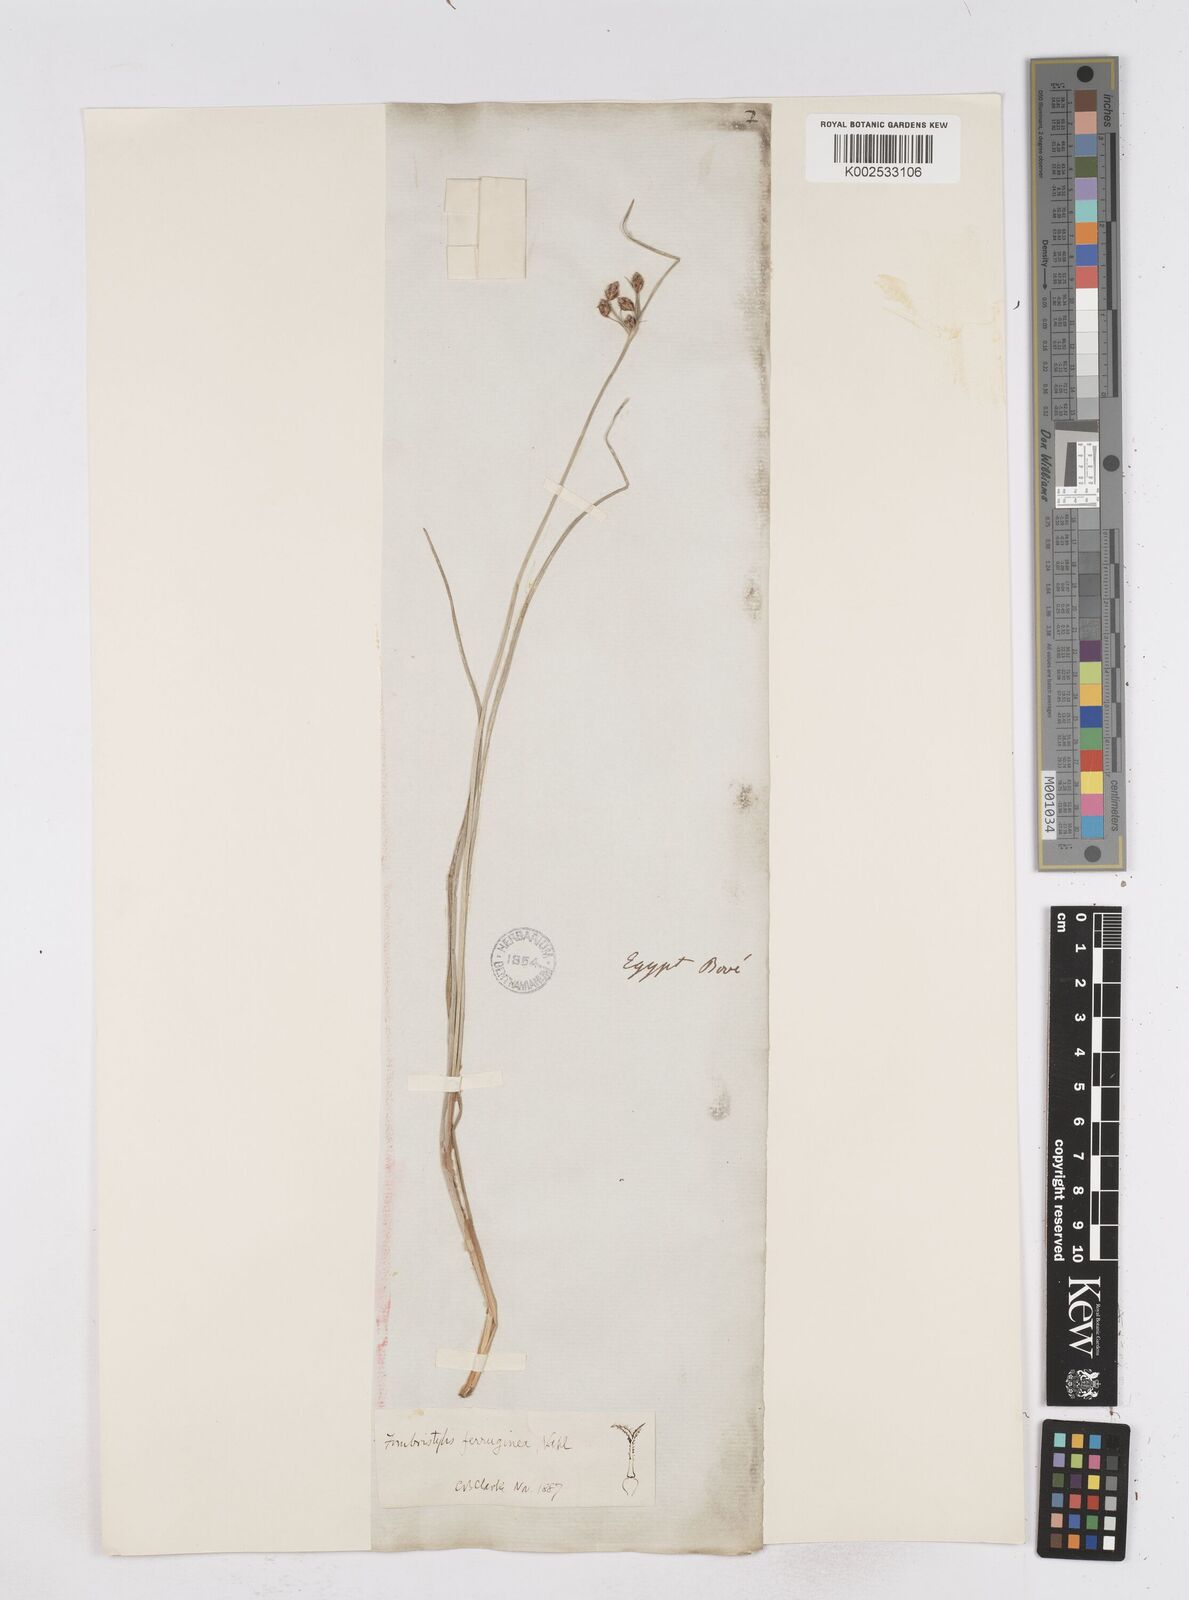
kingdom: Plantae
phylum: Tracheophyta
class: Liliopsida
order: Poales
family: Cyperaceae
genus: Fimbristylis
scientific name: Fimbristylis ferruginea
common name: West indian fimbry
